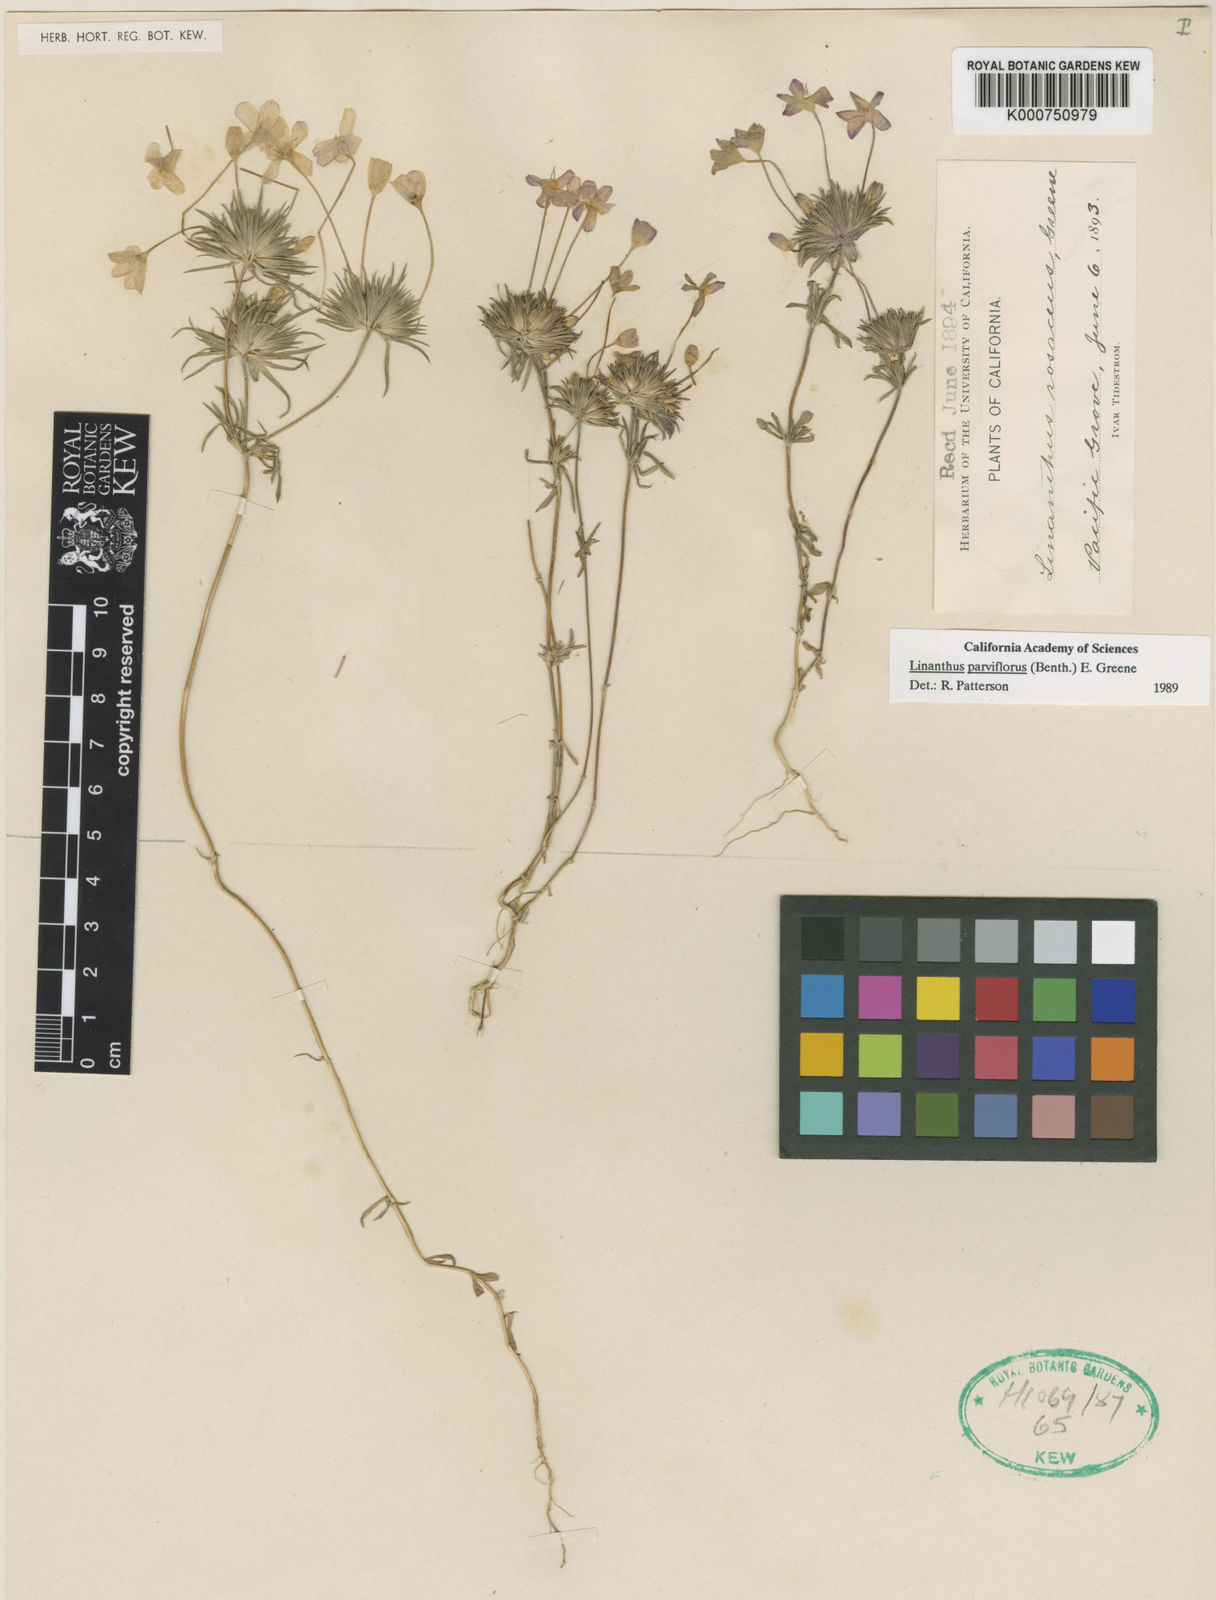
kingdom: Plantae
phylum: Tracheophyta
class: Magnoliopsida
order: Ericales
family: Polemoniaceae
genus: Leptosiphon
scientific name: Leptosiphon parviflorus
